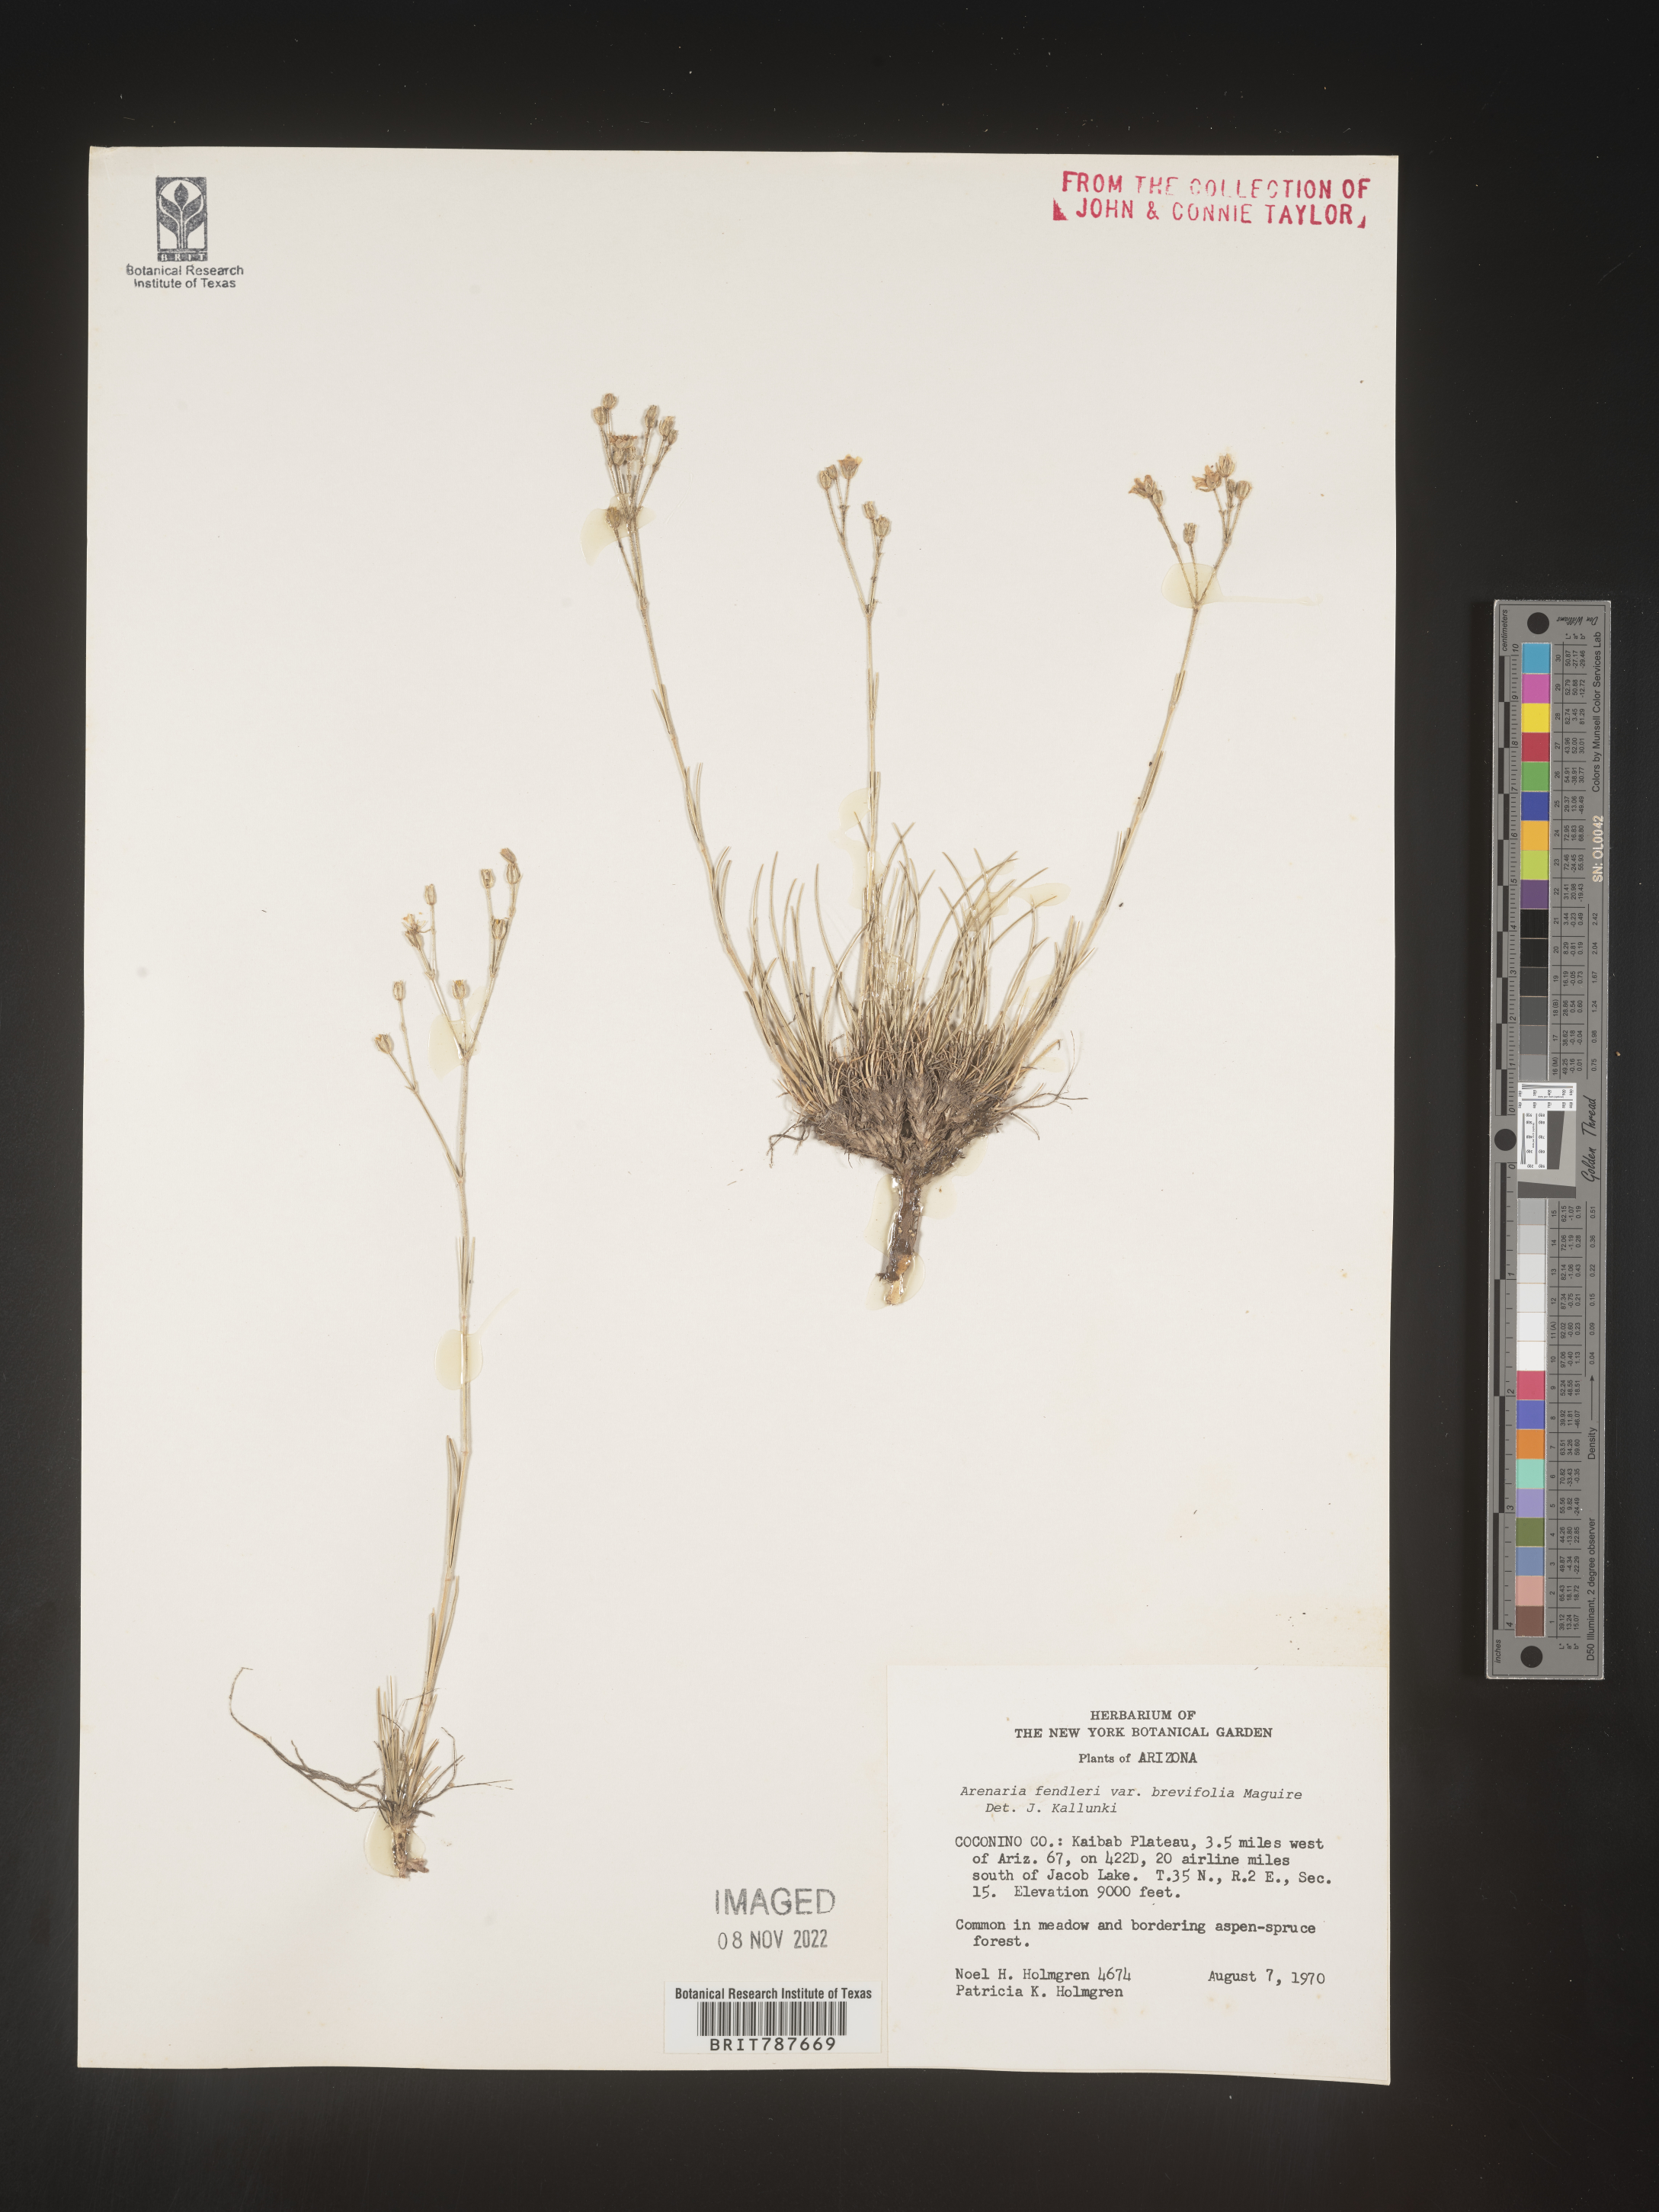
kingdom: Plantae
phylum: Tracheophyta
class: Magnoliopsida
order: Caryophyllales
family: Caryophyllaceae
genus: Arenaria
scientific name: Arenaria
